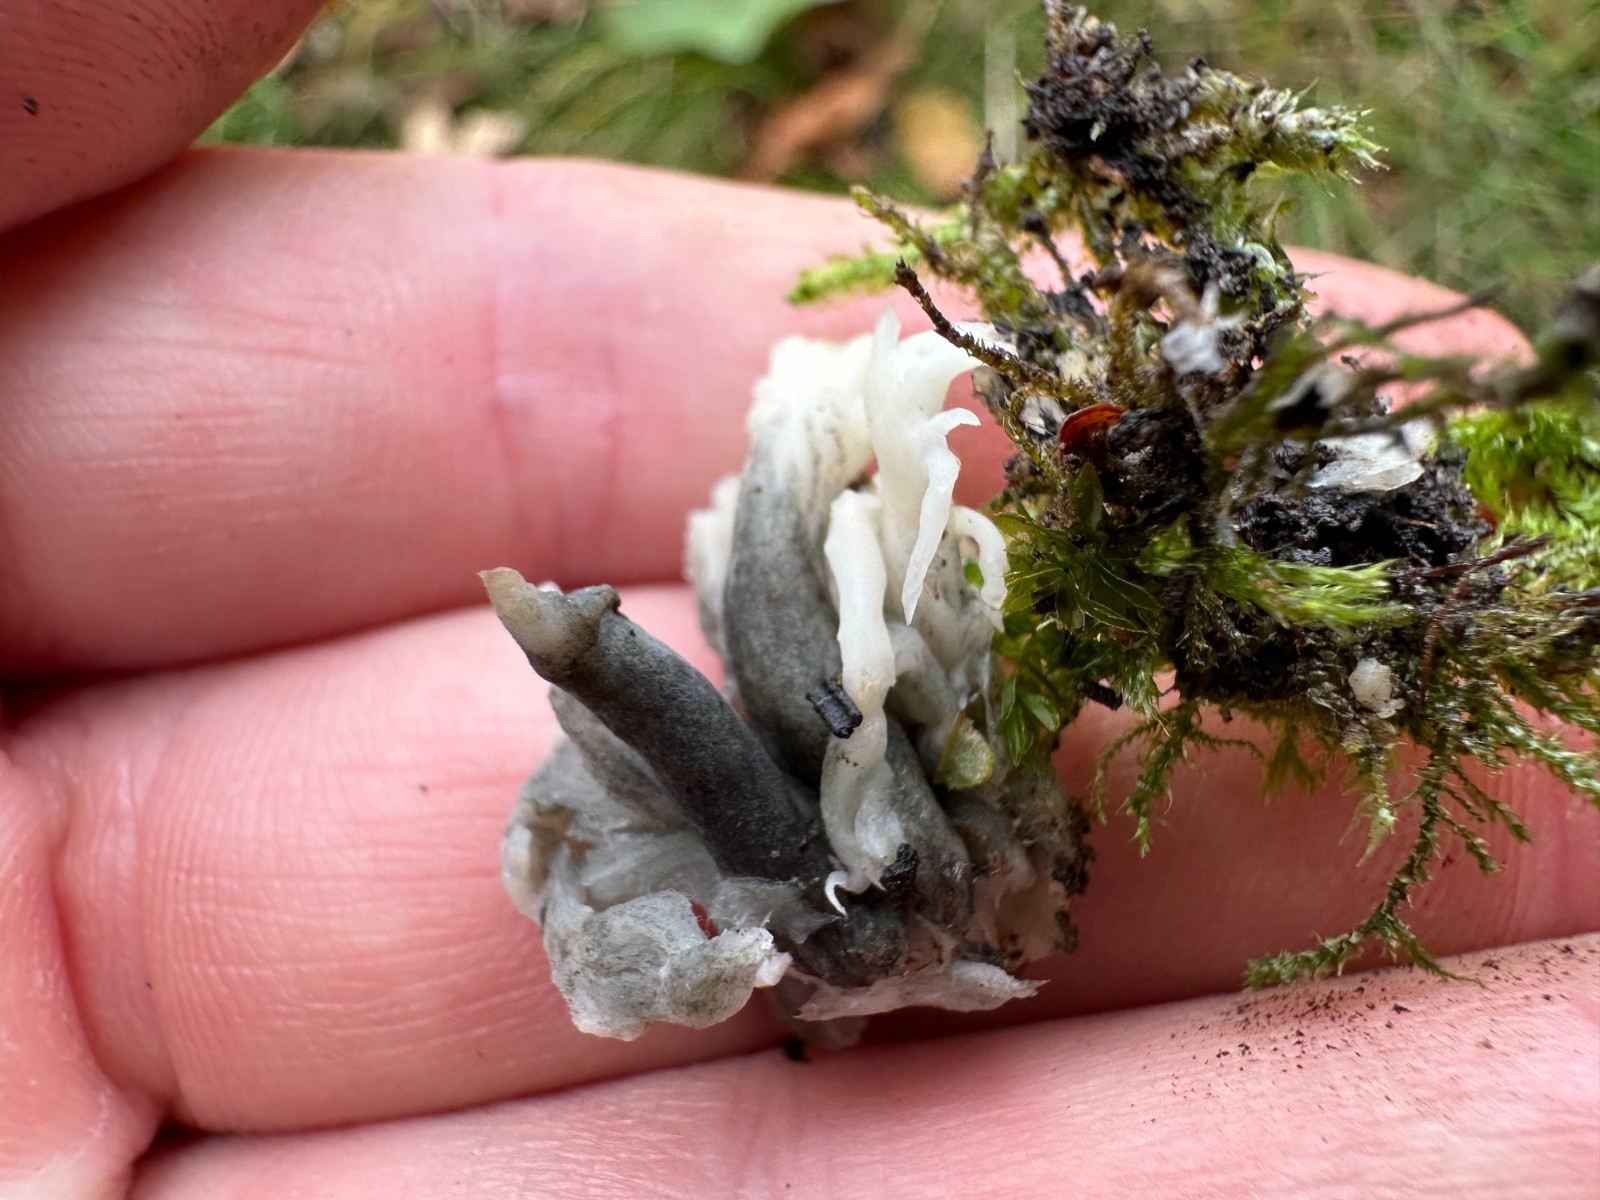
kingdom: Fungi
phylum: Ascomycota
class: Sordariomycetes
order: Sordariales
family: Helminthosphaeriaceae
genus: Helminthosphaeria
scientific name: Helminthosphaeria clavariarum
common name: trold-svampesnyltekerne
